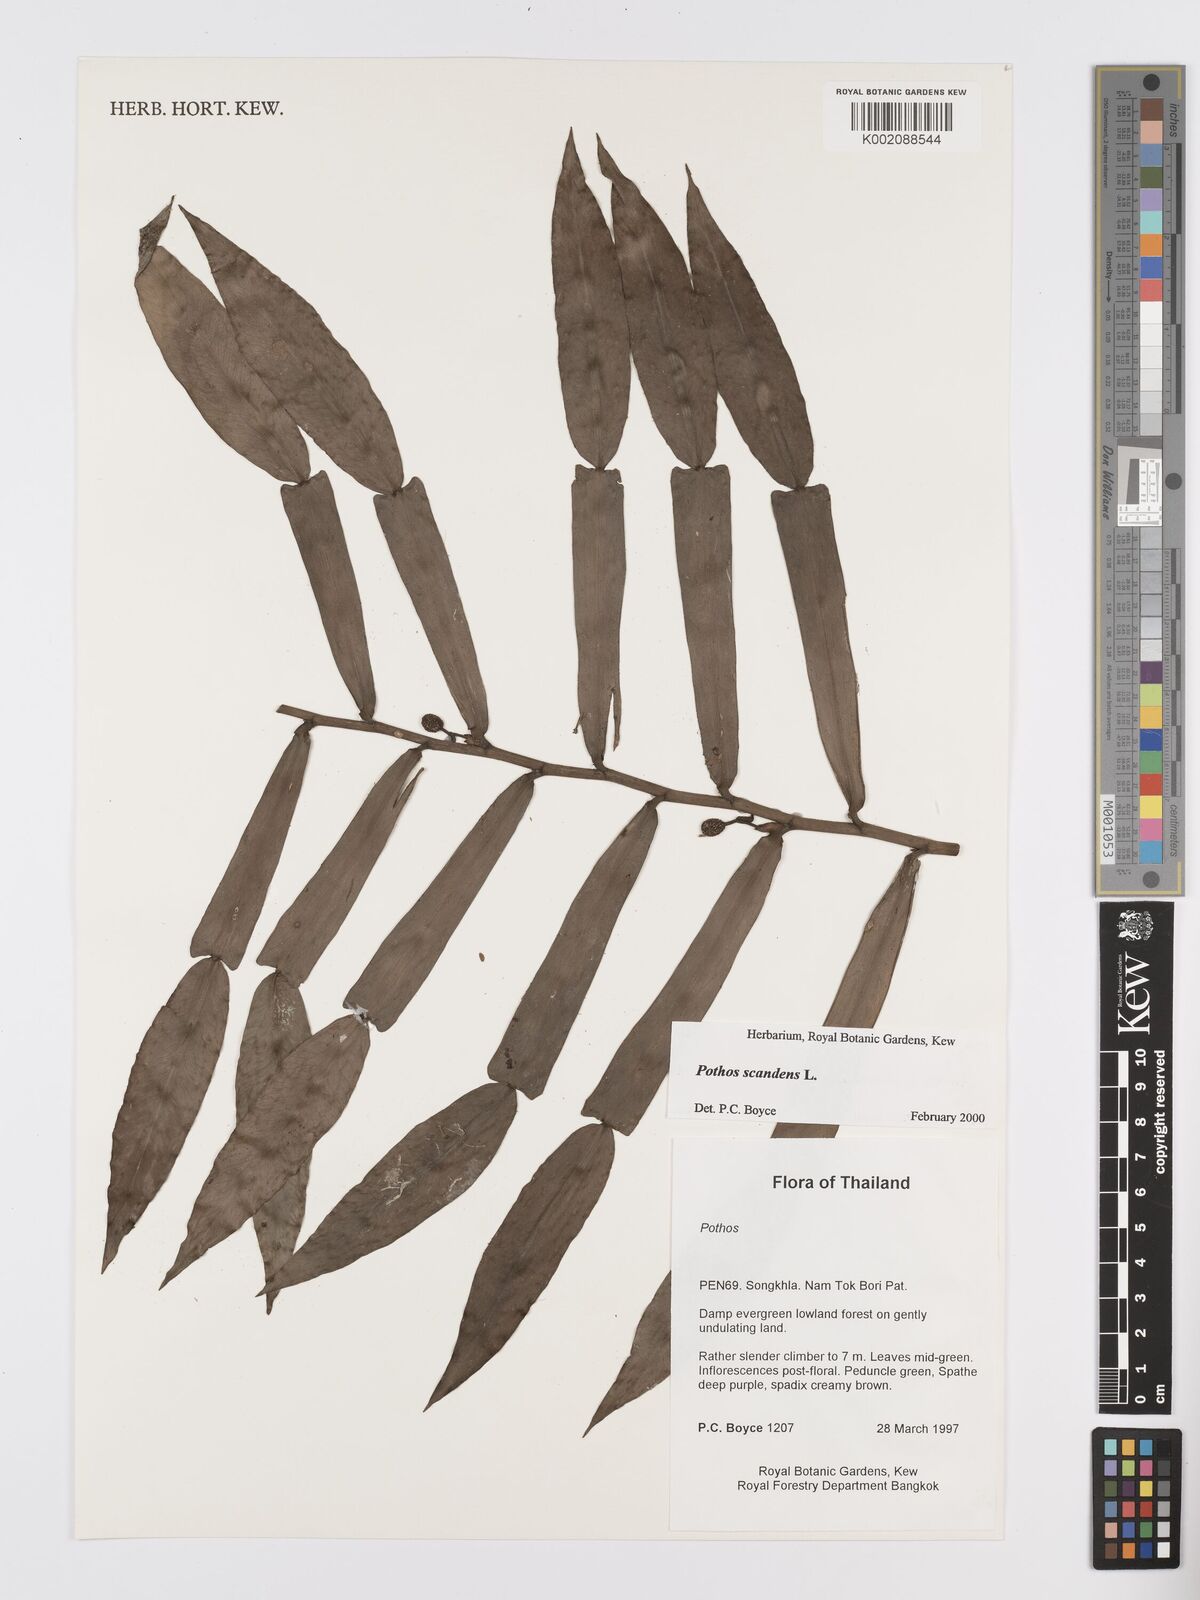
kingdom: Plantae
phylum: Tracheophyta
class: Liliopsida
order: Alismatales
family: Araceae
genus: Pothos
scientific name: Pothos scandens
